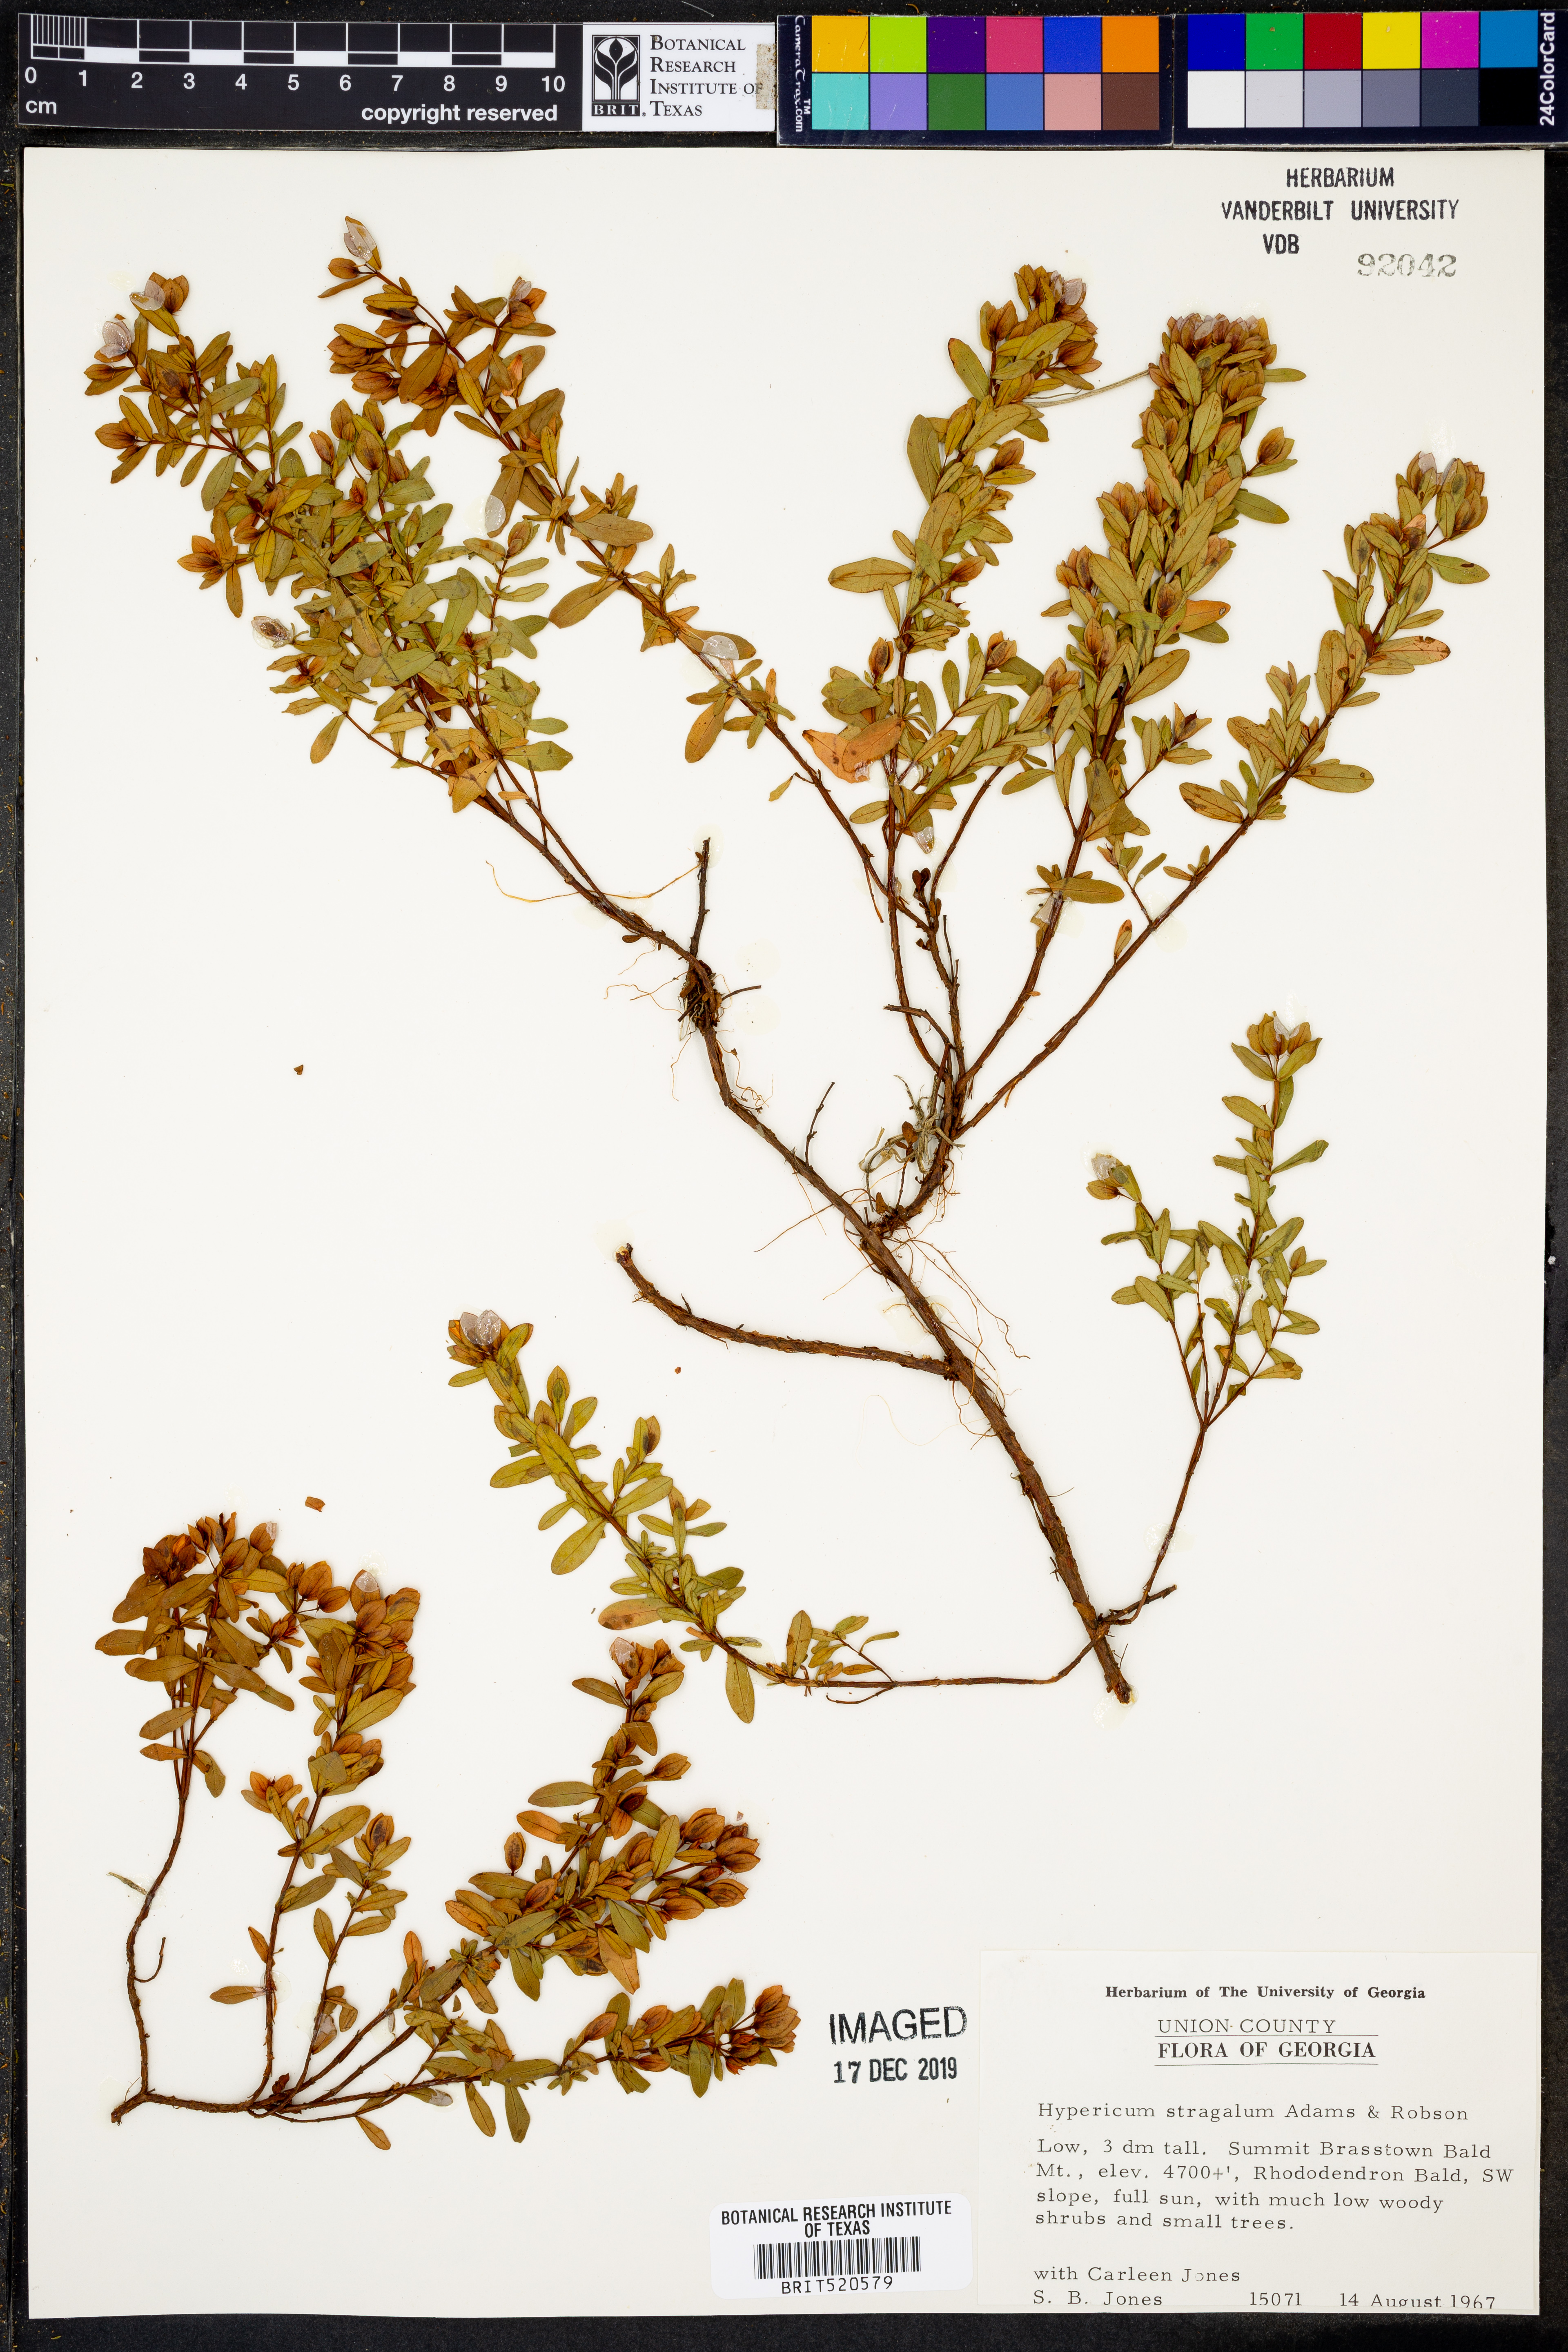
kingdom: Plantae
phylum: Tracheophyta
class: Magnoliopsida
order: Malpighiales
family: Hypericaceae
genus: Hypericum
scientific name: Hypericum hypericoides
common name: St. andrew's cross
